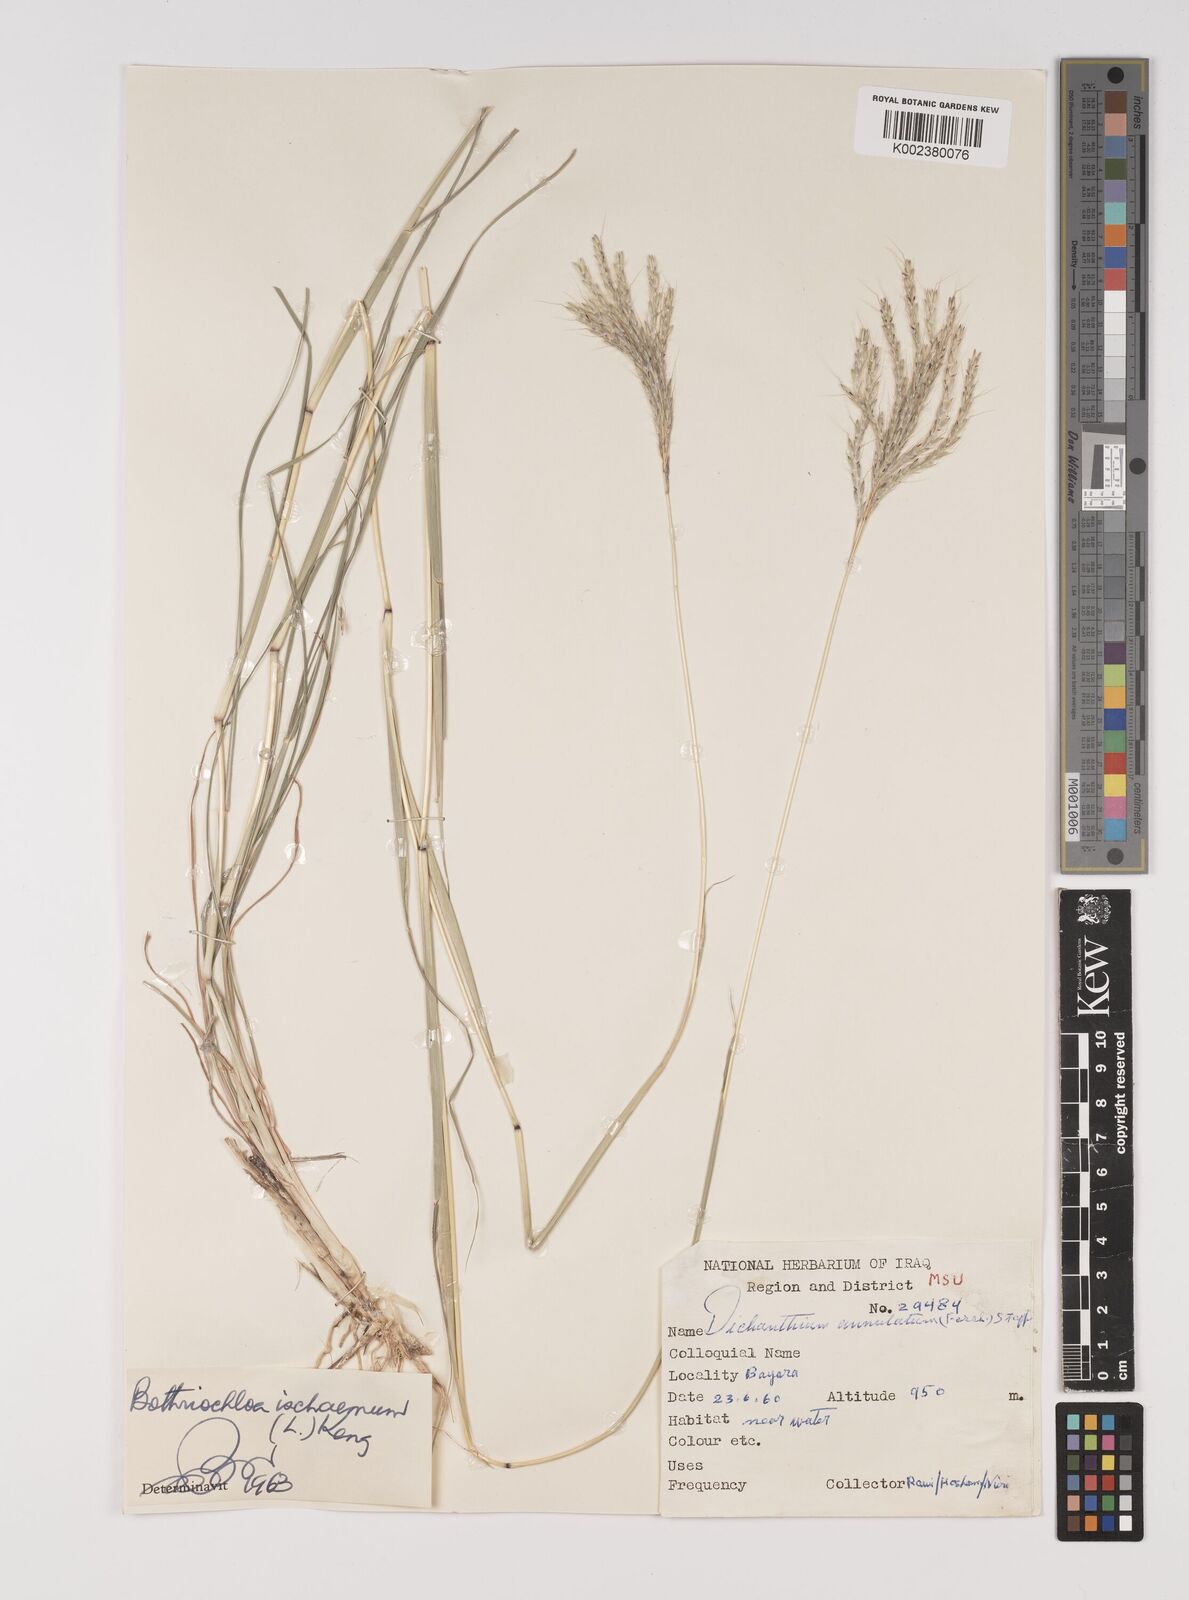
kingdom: Plantae
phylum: Tracheophyta
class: Liliopsida
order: Poales
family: Poaceae
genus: Bothriochloa
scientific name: Bothriochloa ischaemum
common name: Yellow bluestem
